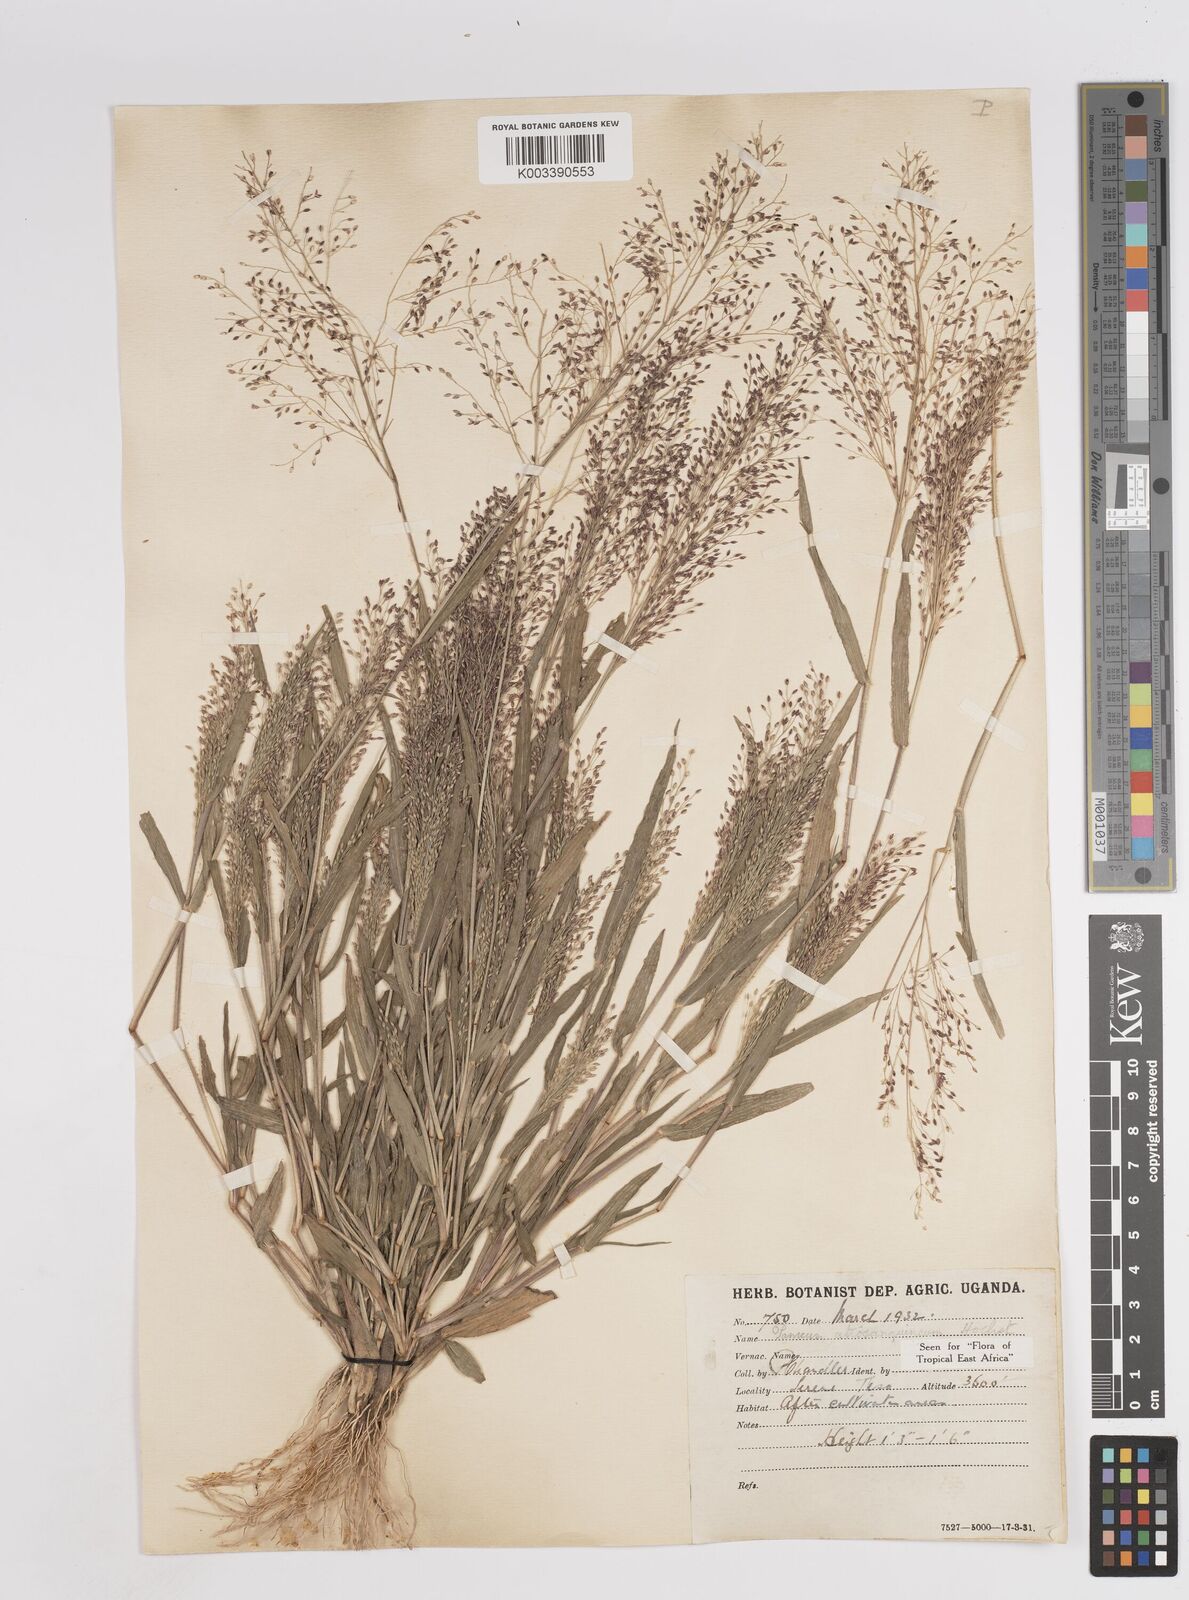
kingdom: Plantae
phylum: Tracheophyta
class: Liliopsida
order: Poales
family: Poaceae
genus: Panicum
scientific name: Panicum atrosanguineum
